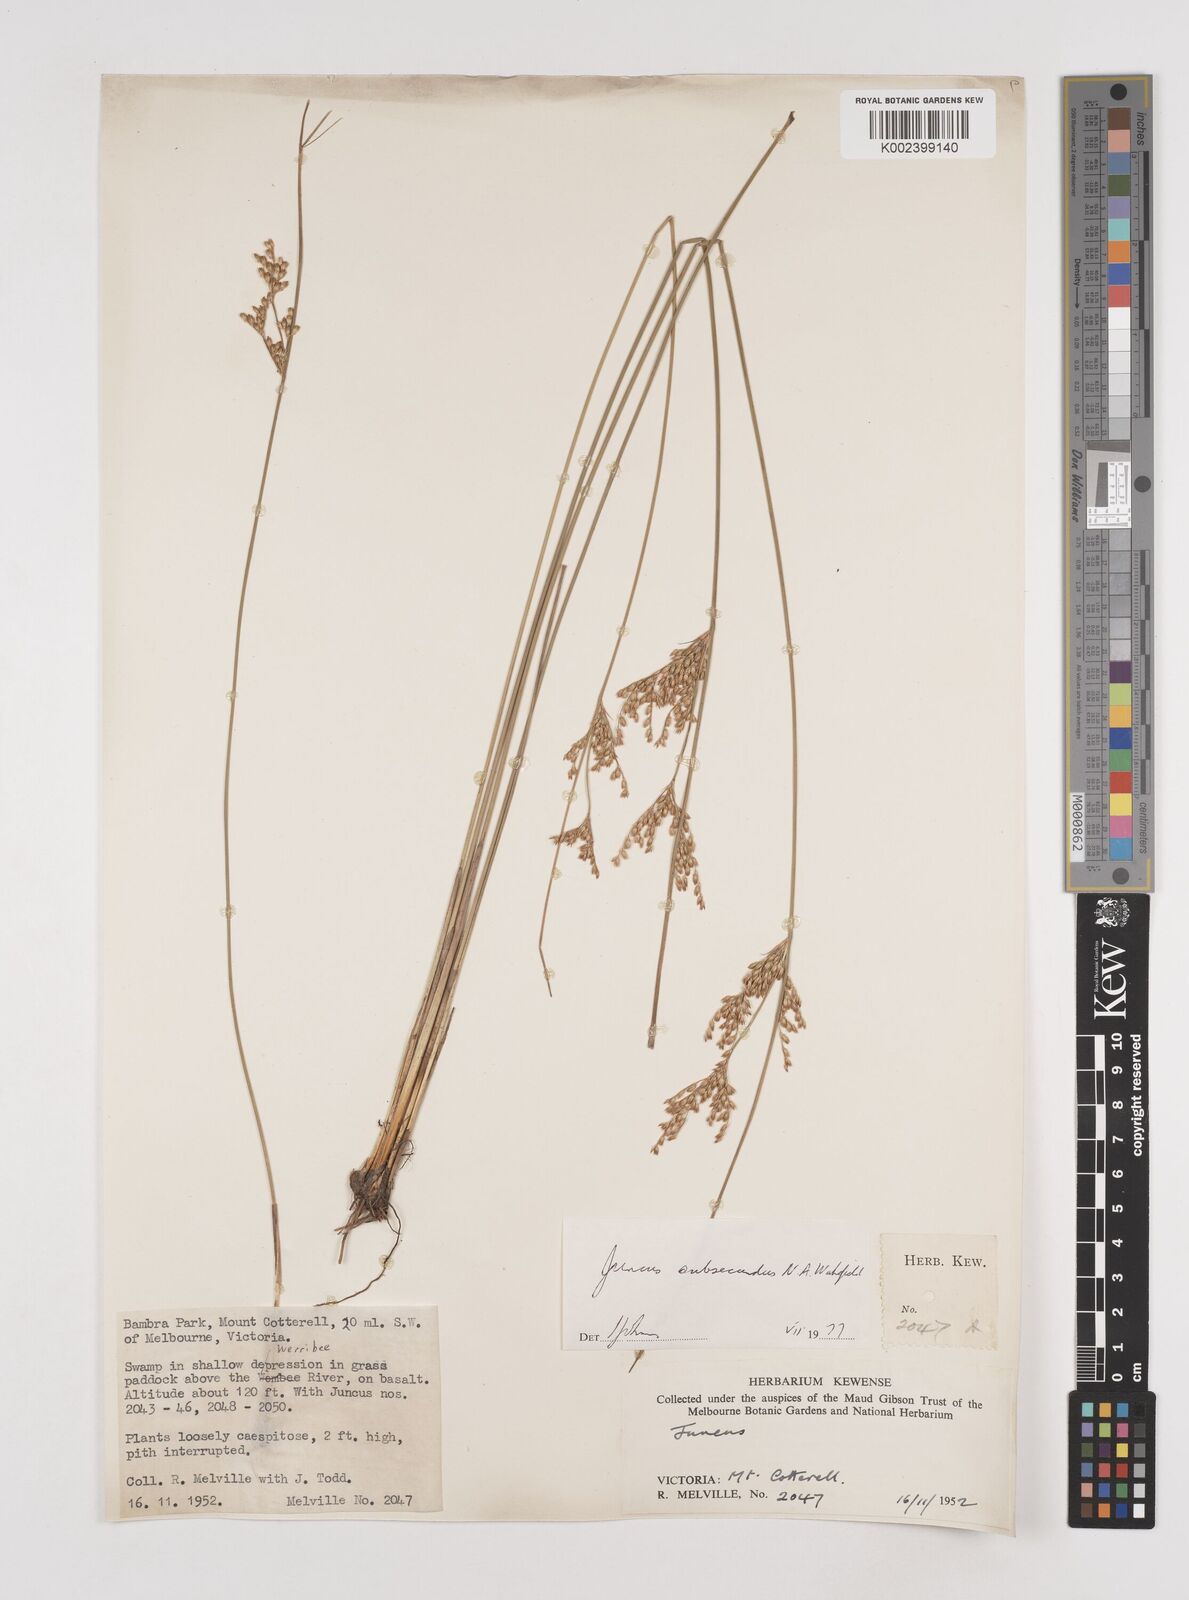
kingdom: Plantae
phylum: Tracheophyta
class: Liliopsida
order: Poales
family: Juncaceae
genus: Juncus
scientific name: Juncus subsecundus
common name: Fingered rush
